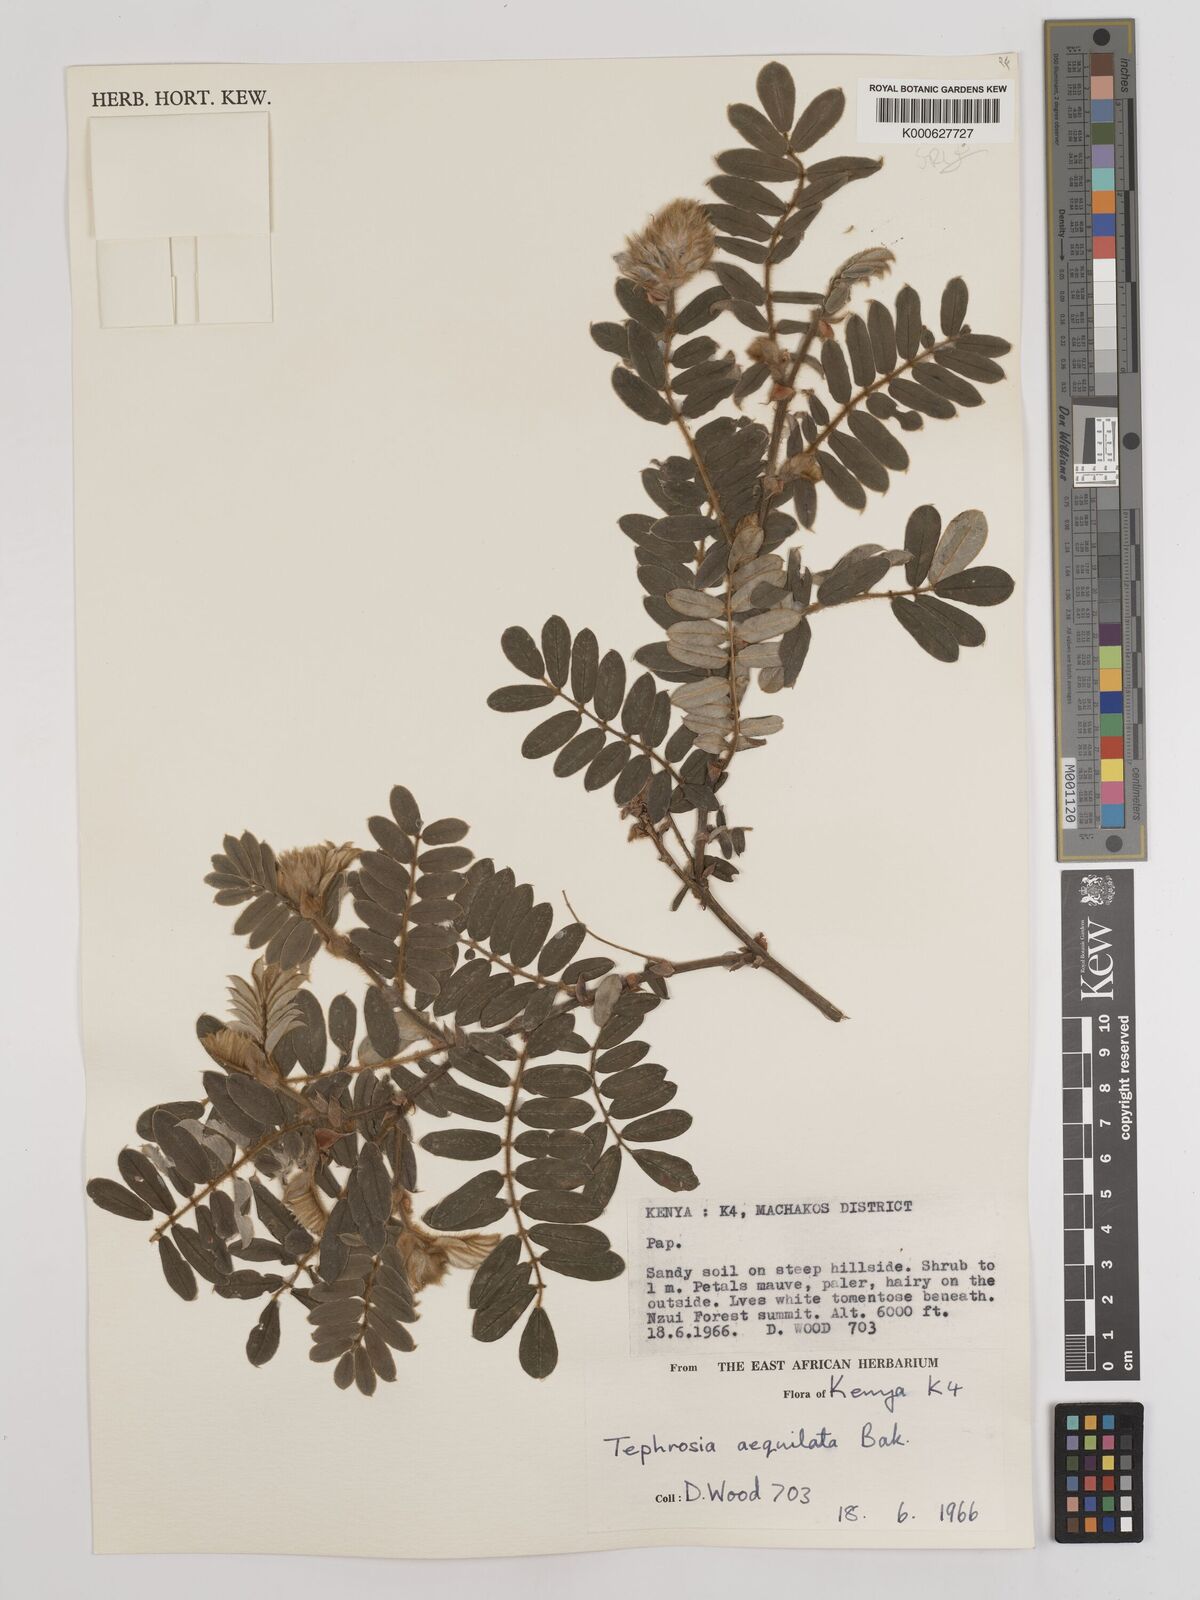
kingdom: Plantae
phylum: Tracheophyta
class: Magnoliopsida
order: Fabales
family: Fabaceae
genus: Tephrosia
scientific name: Tephrosia aequilata
